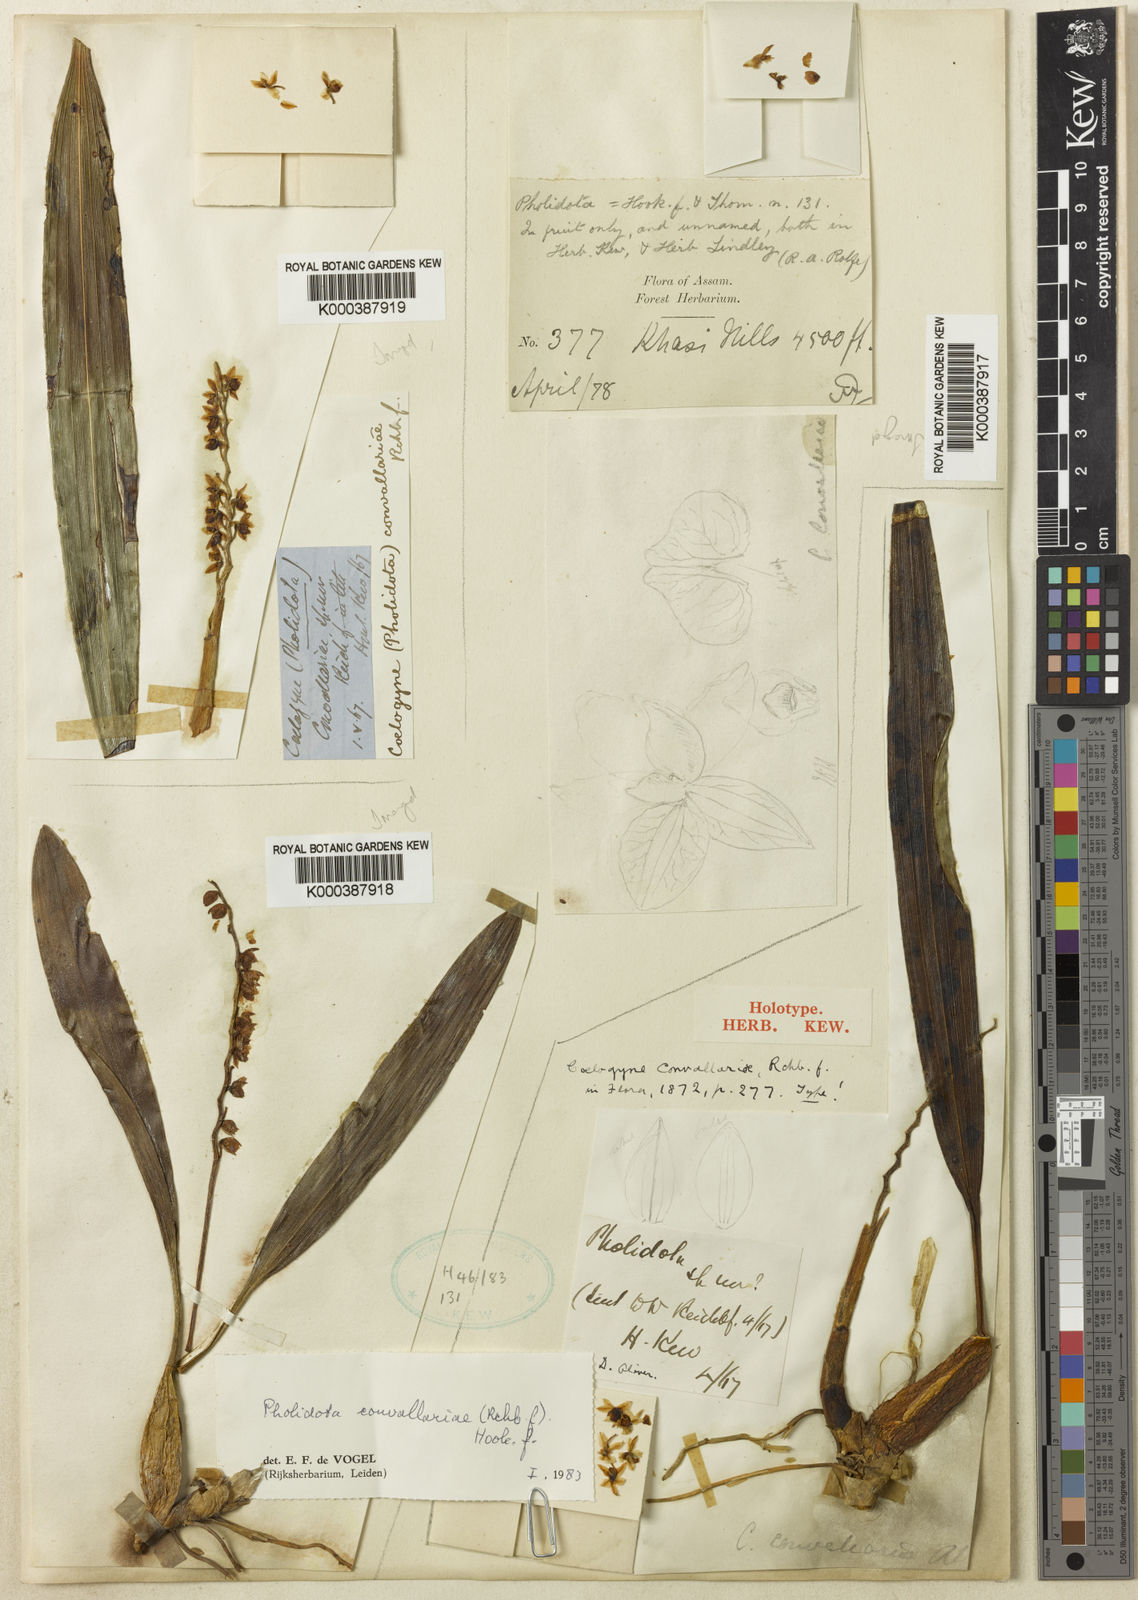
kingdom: Plantae
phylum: Tracheophyta
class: Liliopsida
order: Asparagales
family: Orchidaceae
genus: Coelogyne
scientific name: Coelogyne convallariae
